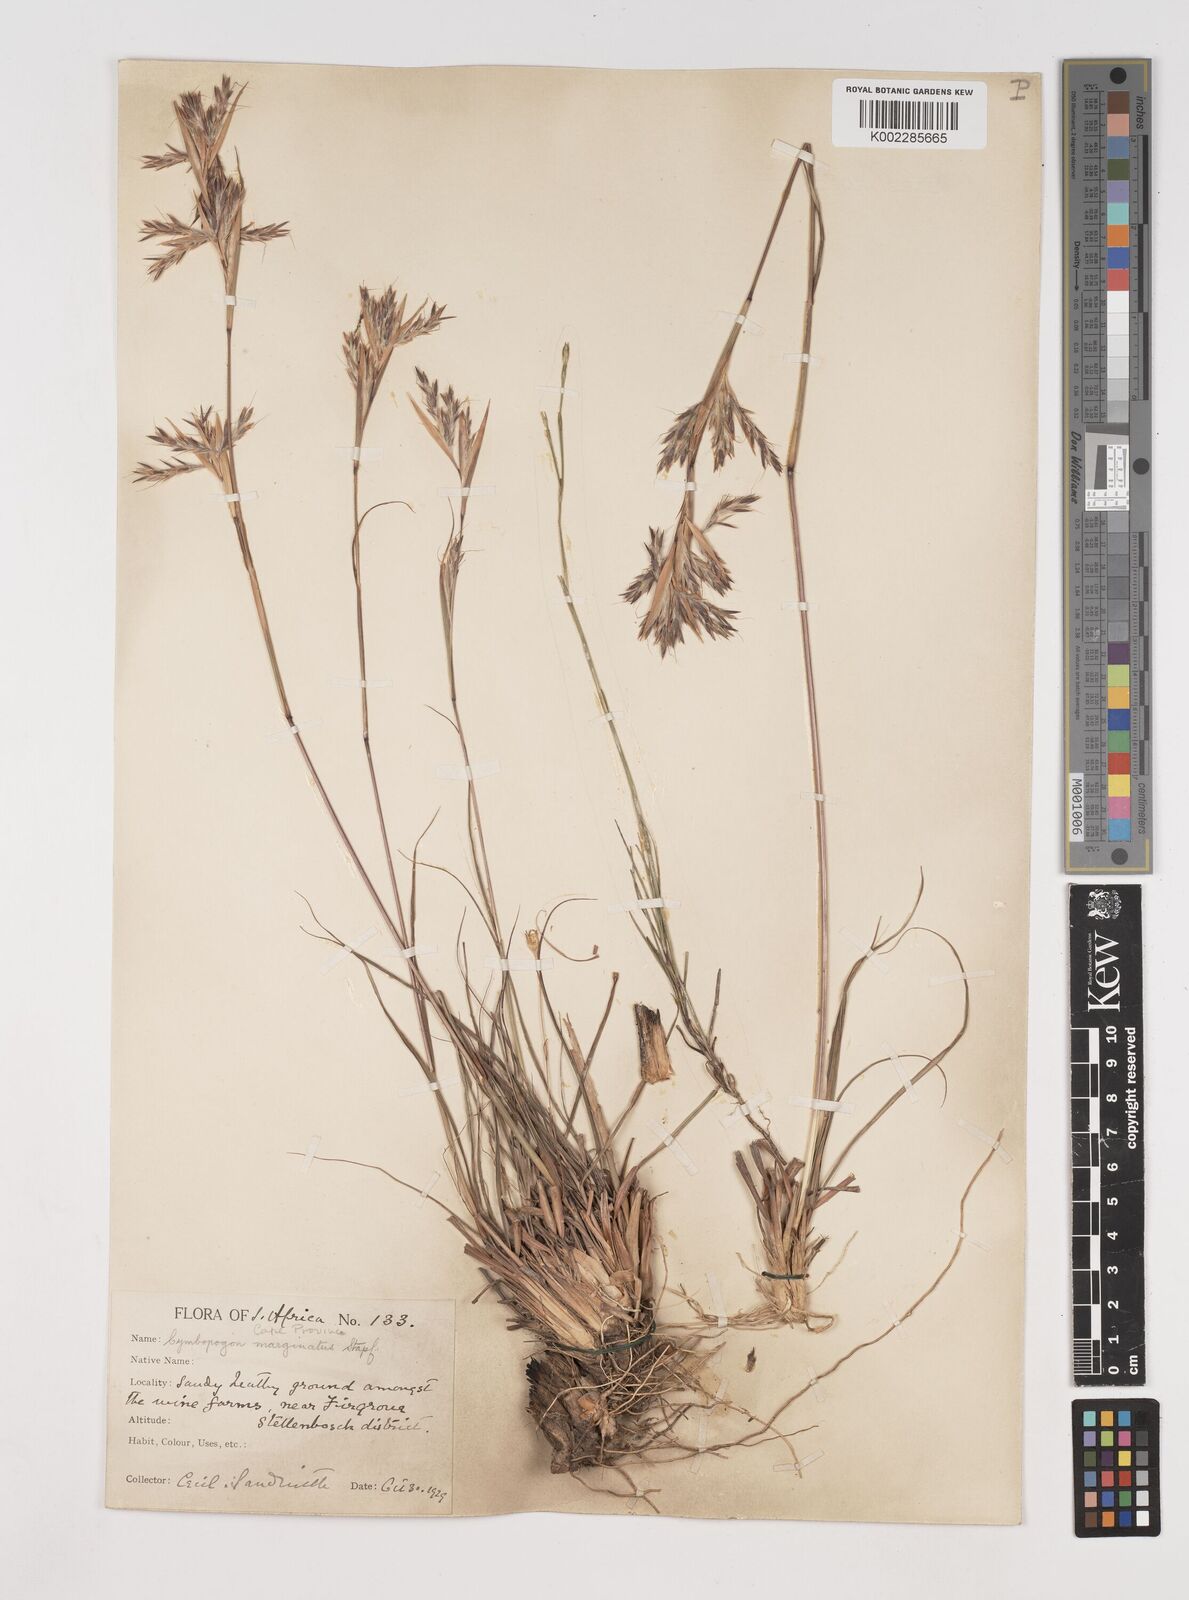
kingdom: Plantae
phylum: Tracheophyta
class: Liliopsida
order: Poales
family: Poaceae
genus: Cymbopogon
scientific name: Cymbopogon marginatus
